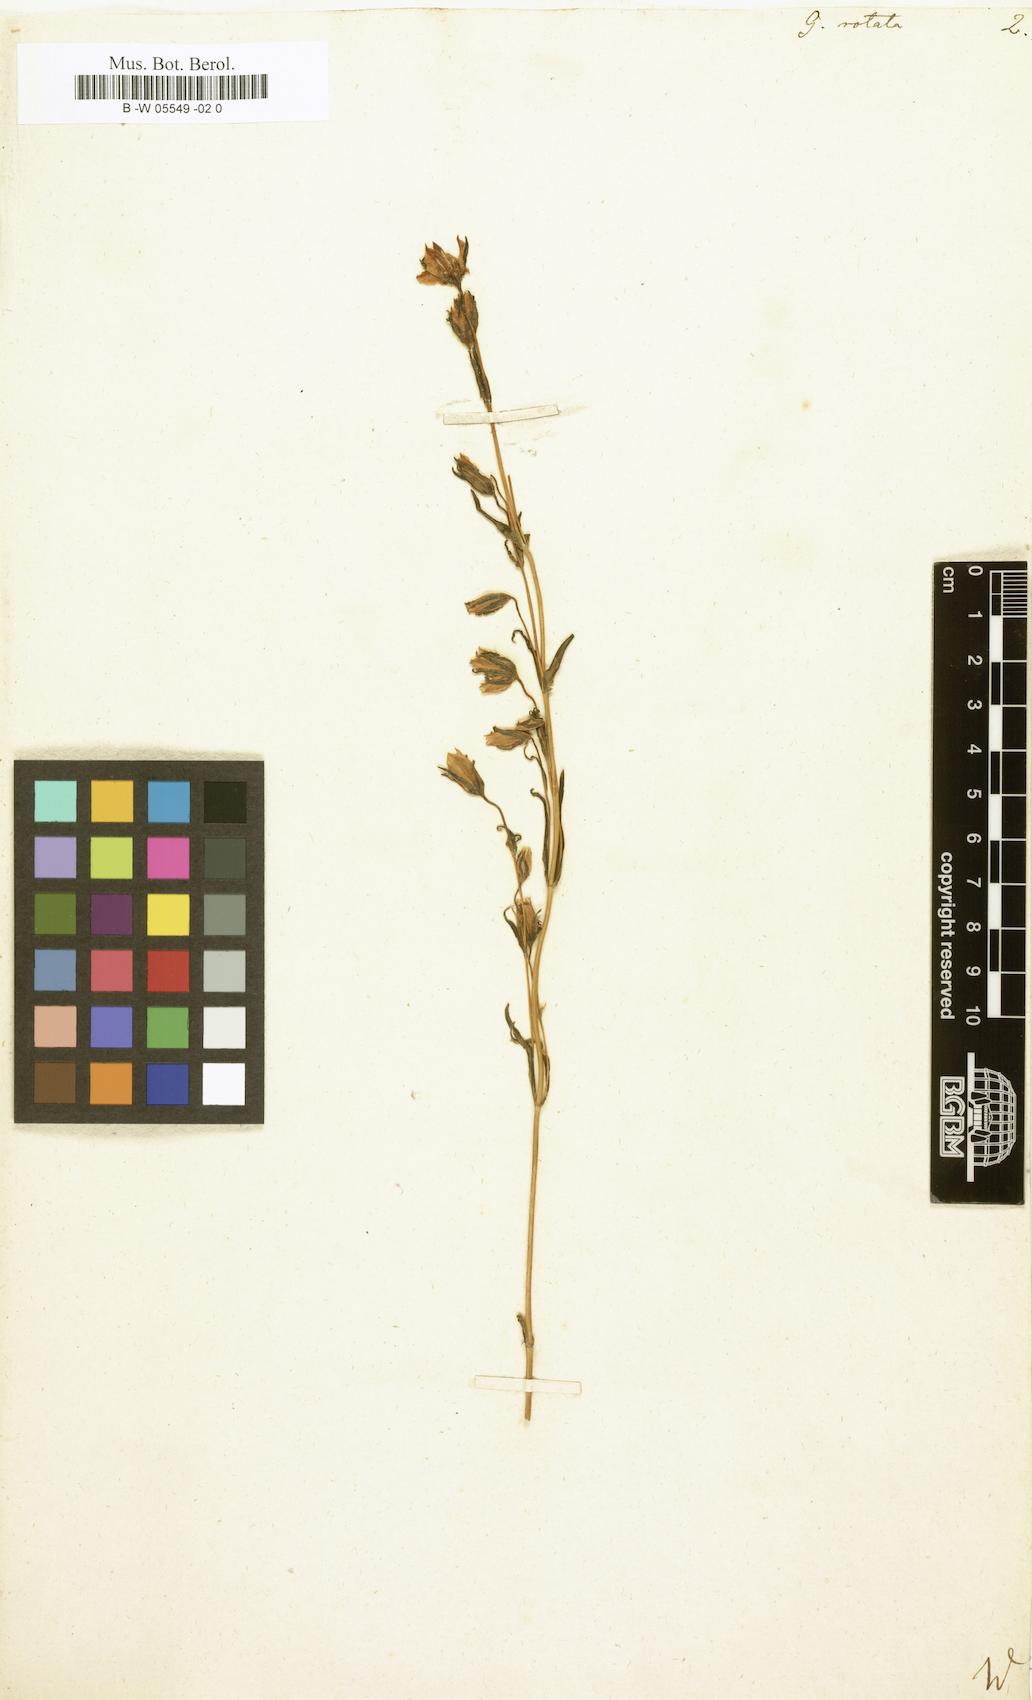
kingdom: Plantae
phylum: Tracheophyta
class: Magnoliopsida
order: Gentianales
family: Gentianaceae
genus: Lomatogonium
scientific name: Lomatogonium carinthiacum
